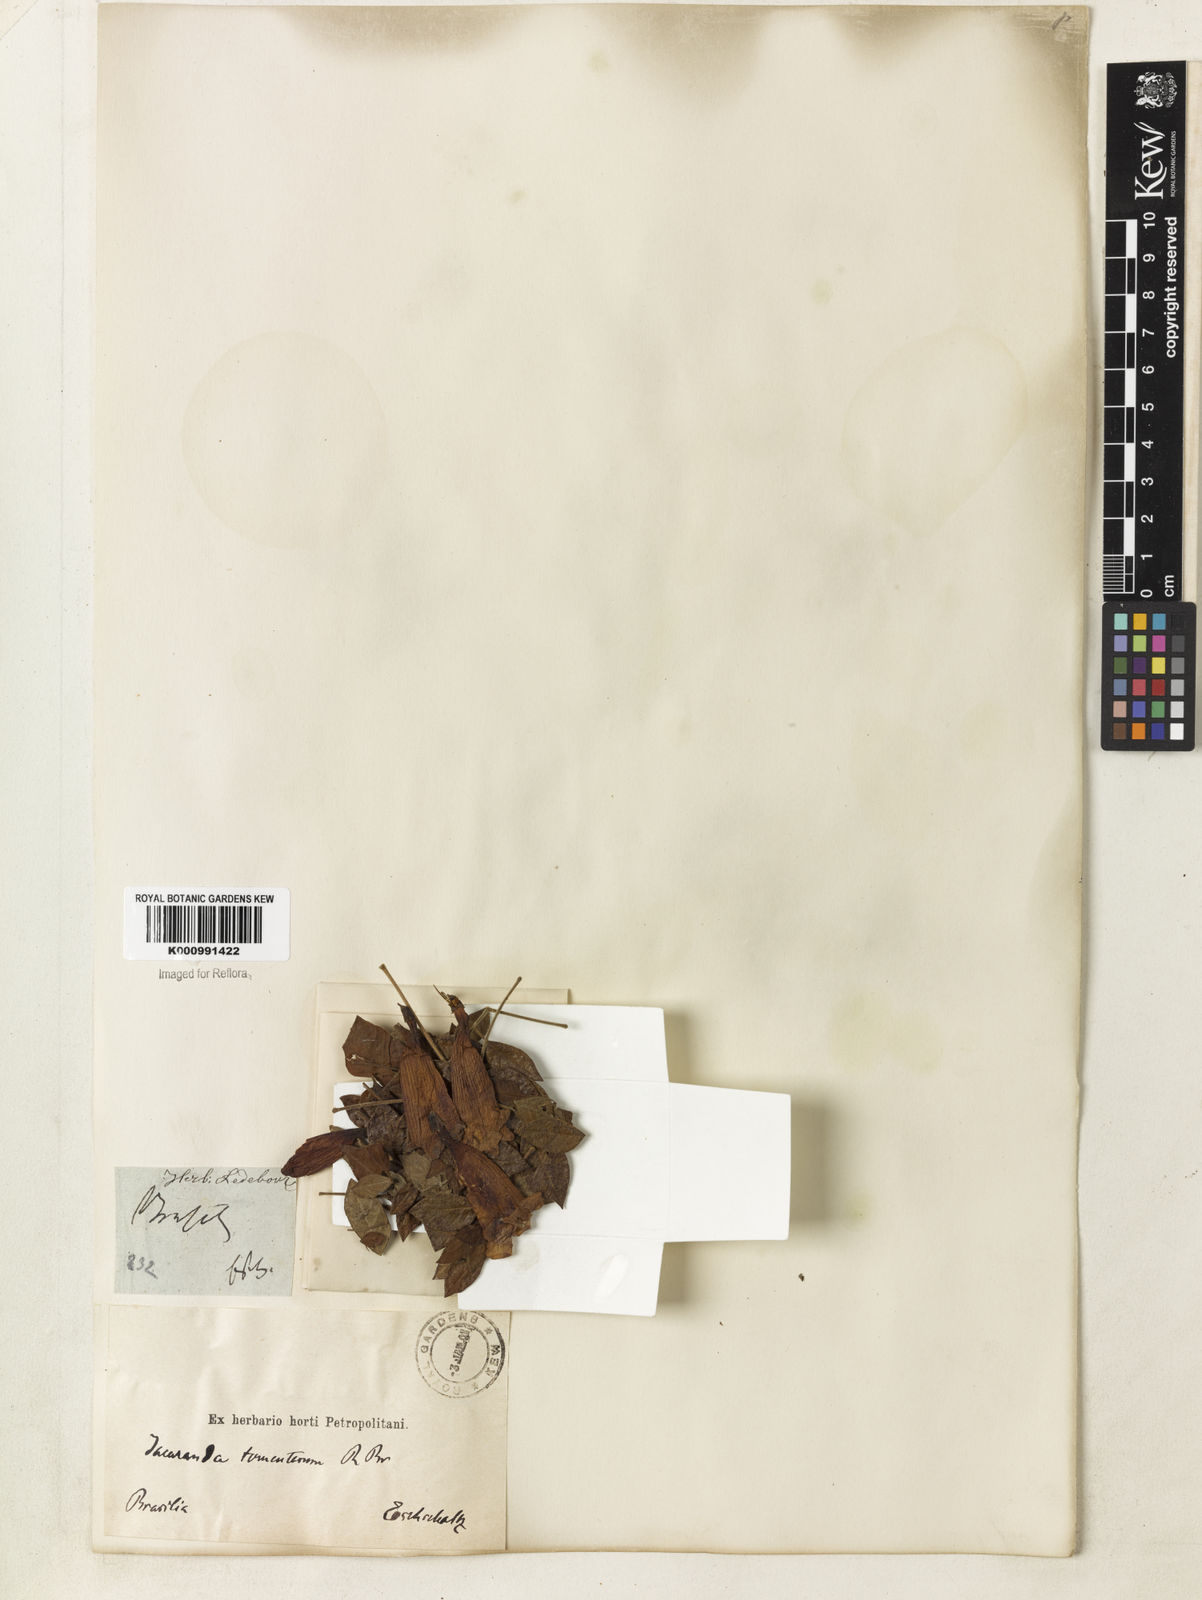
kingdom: Plantae
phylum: Tracheophyta
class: Magnoliopsida
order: Lamiales
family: Bignoniaceae
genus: Jacaranda
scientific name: Jacaranda jasminoides
